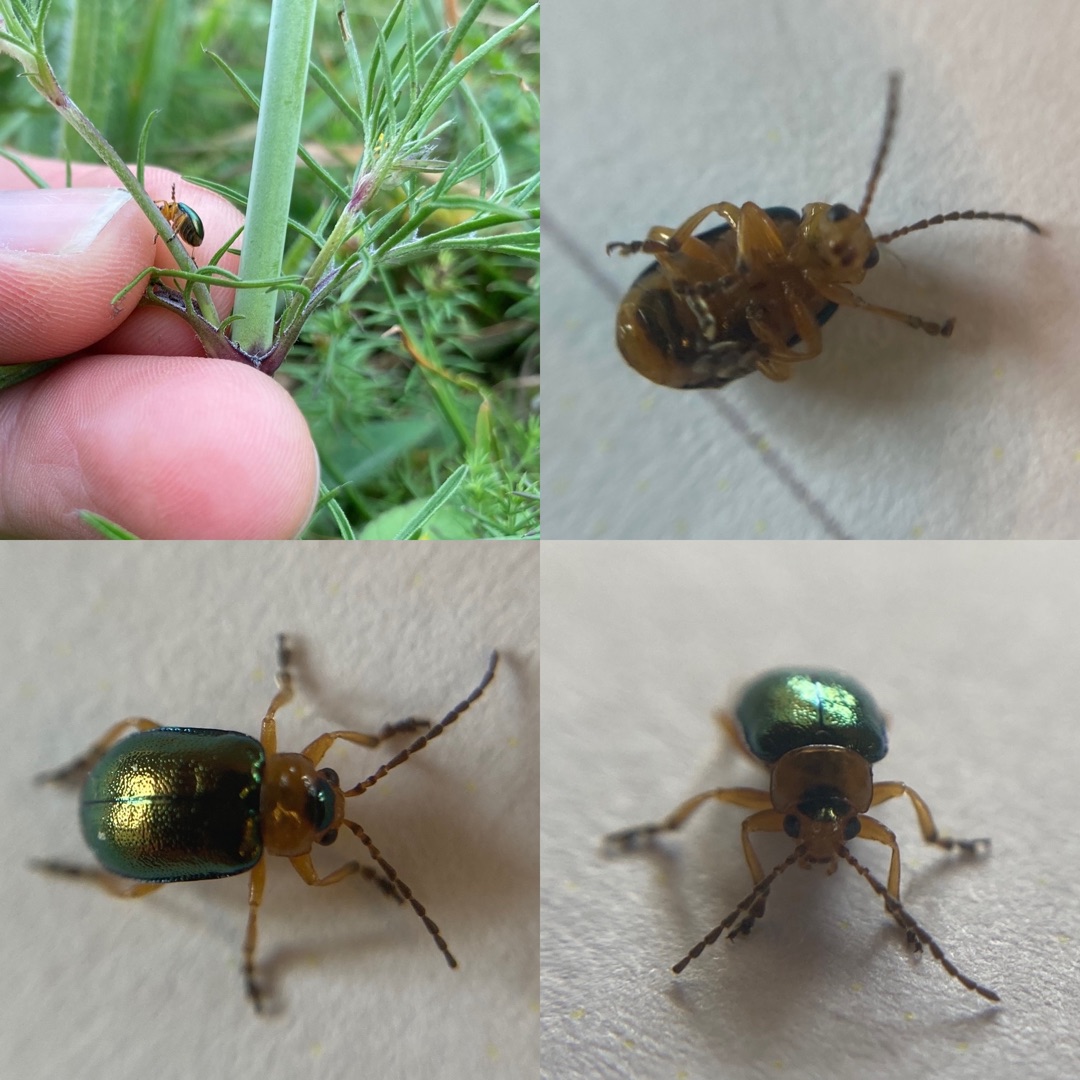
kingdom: Animalia
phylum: Arthropoda
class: Insecta
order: Coleoptera
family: Chrysomelidae
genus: Sermylassa
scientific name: Sermylassa halensis
